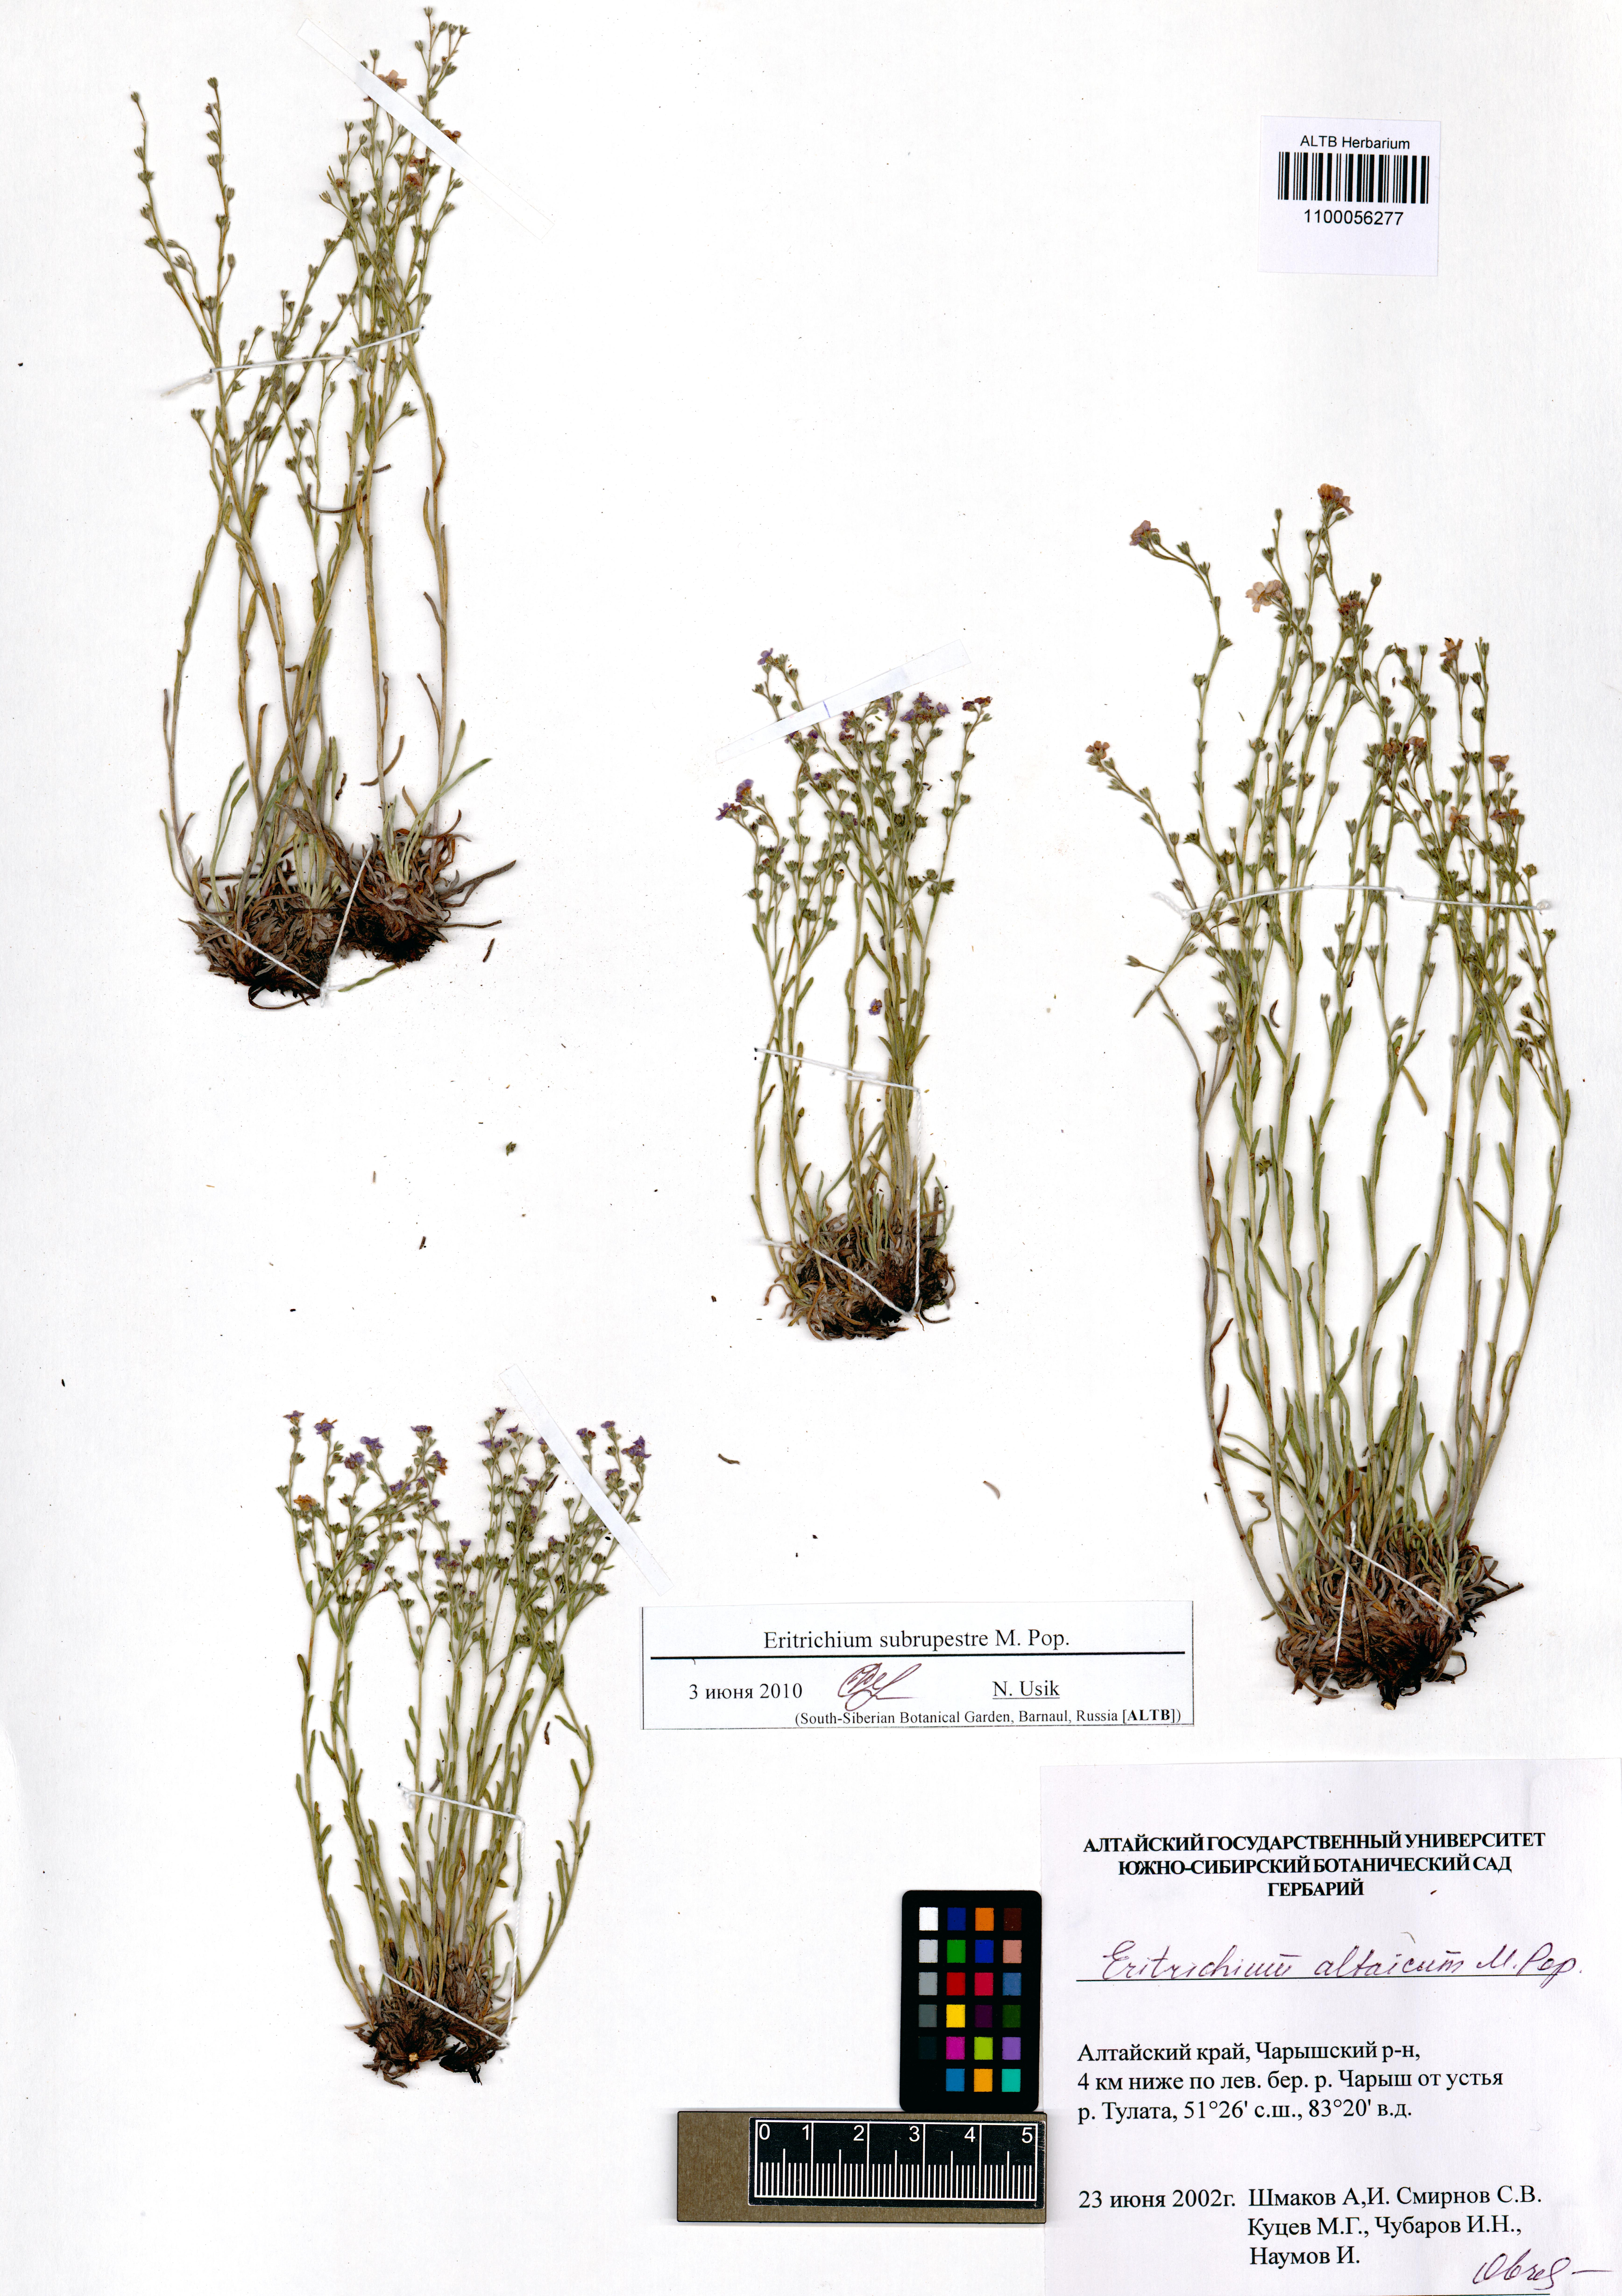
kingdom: Plantae
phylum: Tracheophyta
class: Magnoliopsida
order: Boraginales
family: Boraginaceae
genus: Eritrichium
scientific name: Eritrichium pauciflorum
